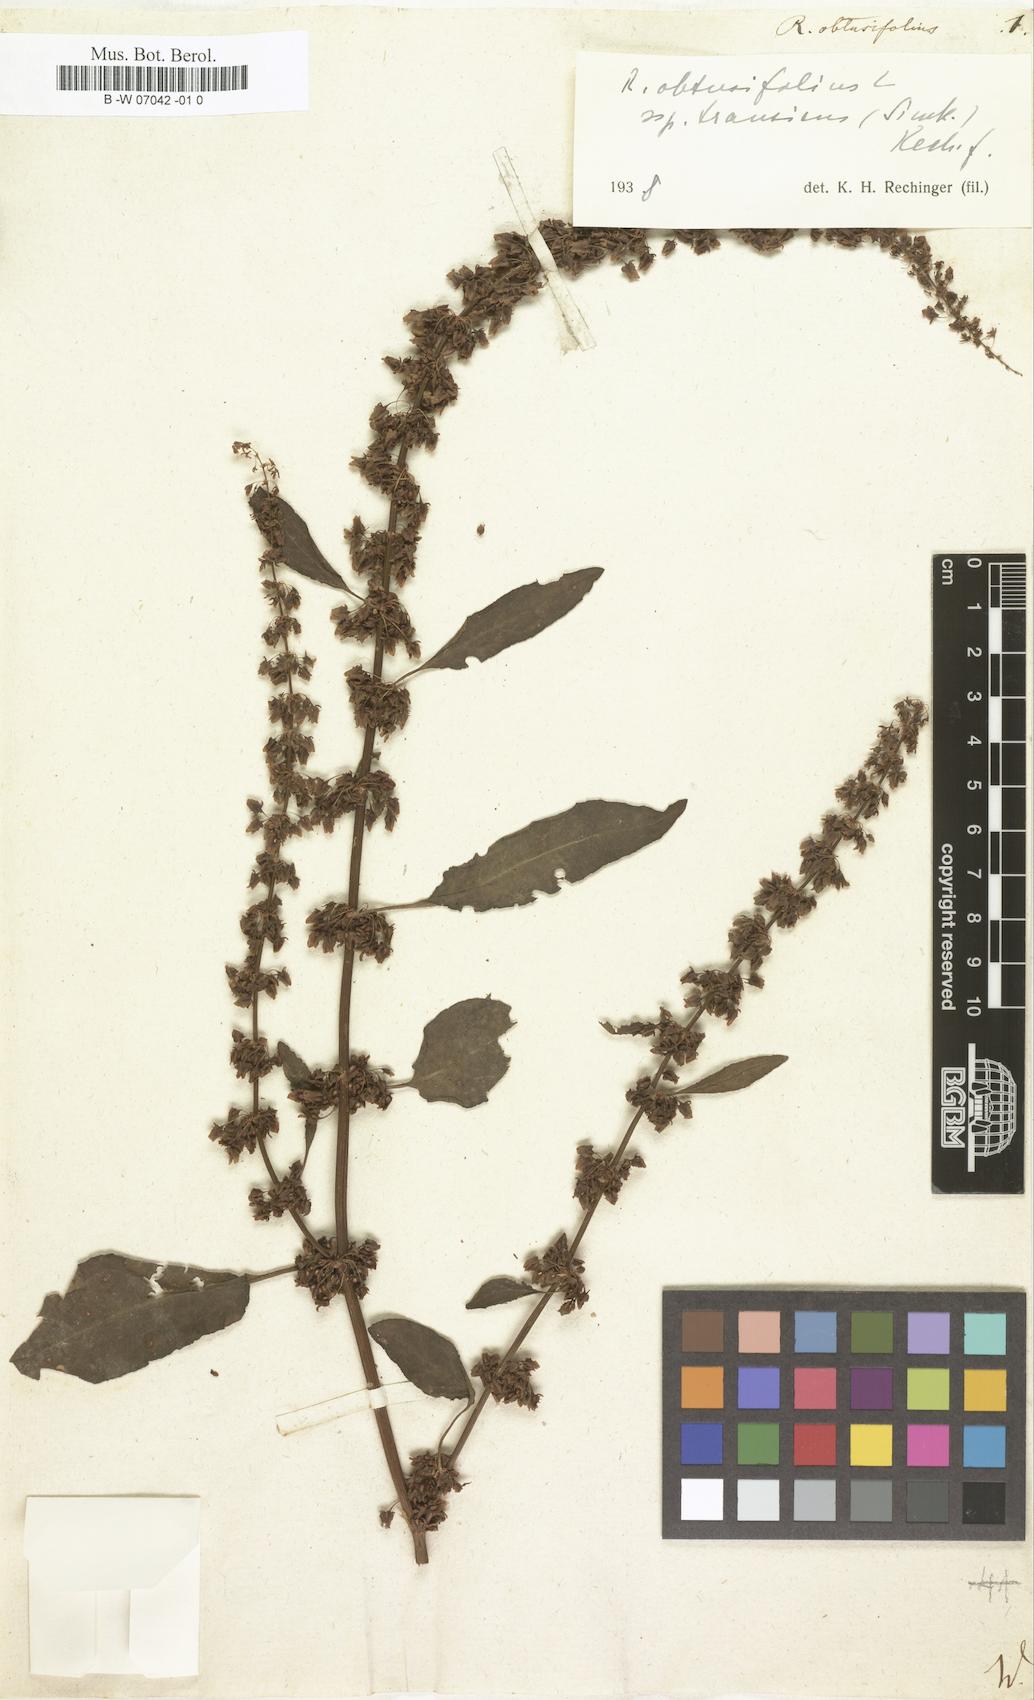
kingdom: Plantae
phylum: Tracheophyta
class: Magnoliopsida
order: Caryophyllales
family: Polygonaceae
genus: Rumex
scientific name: Rumex obtusifolius
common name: Bitter dock
